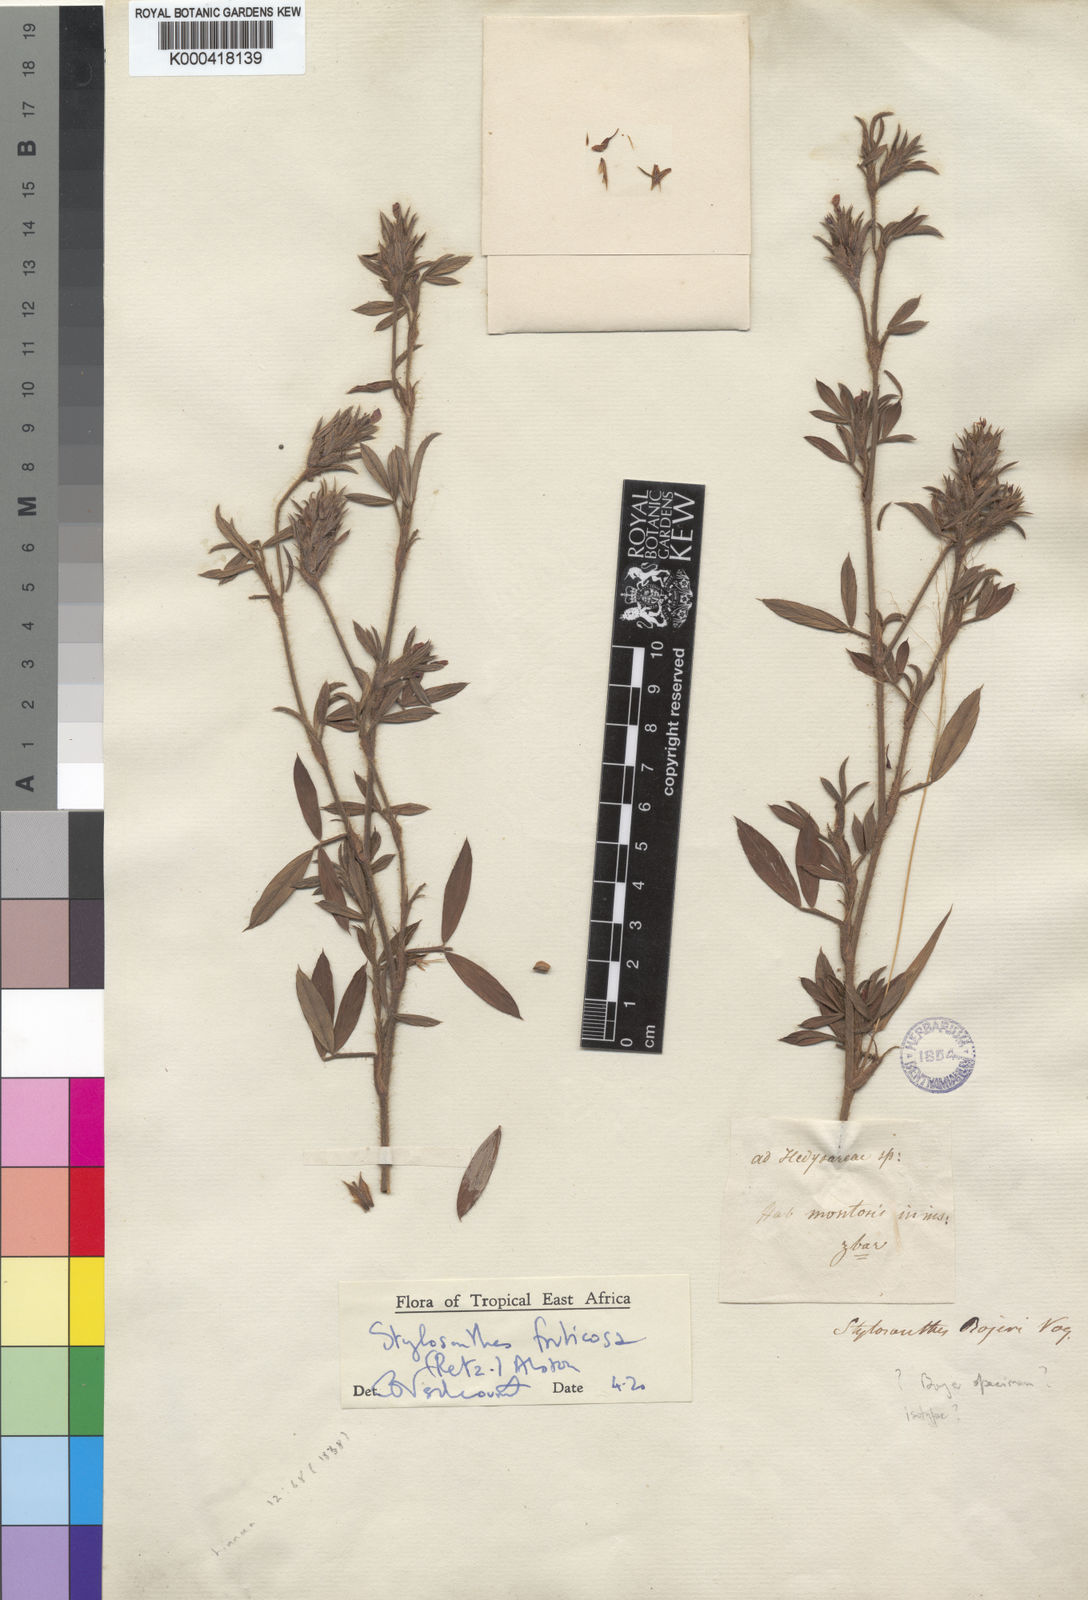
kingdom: Plantae
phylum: Tracheophyta
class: Magnoliopsida
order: Fabales
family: Fabaceae
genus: Stylosanthes
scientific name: Stylosanthes fruticosa
